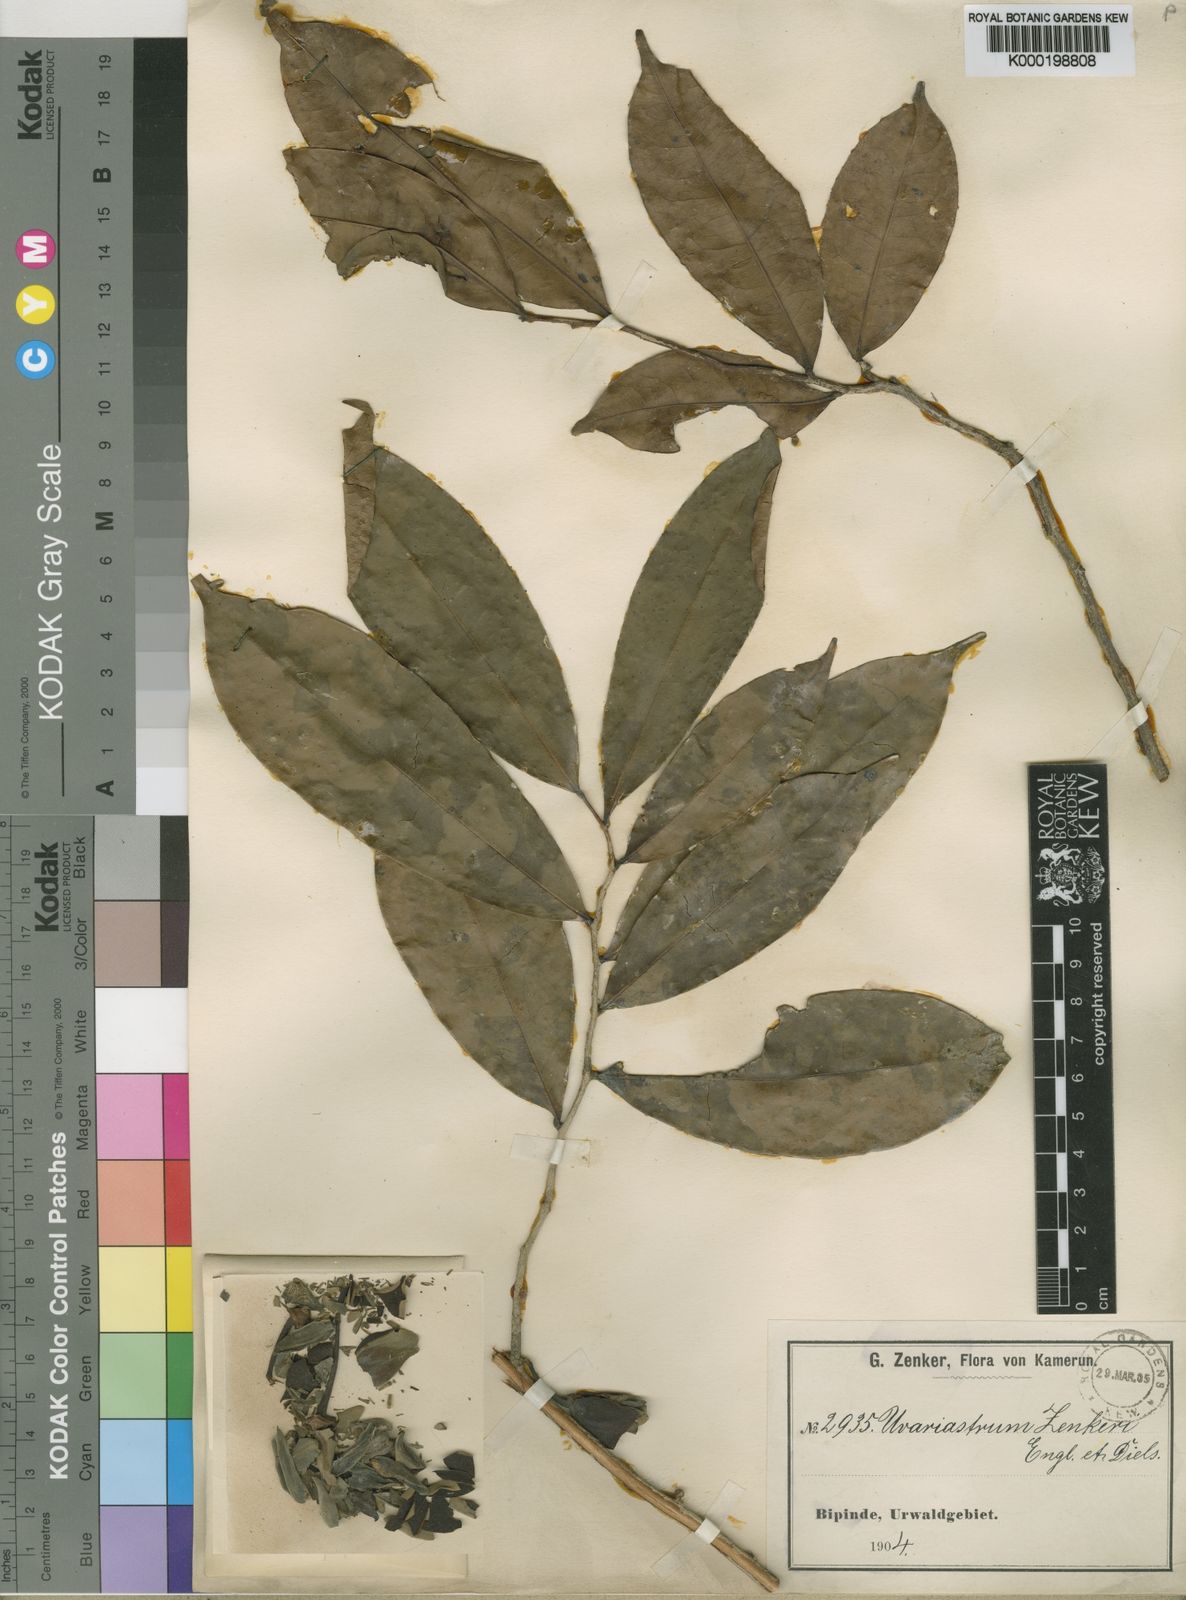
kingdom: Plantae
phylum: Tracheophyta
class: Magnoliopsida
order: Magnoliales
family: Annonaceae
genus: Uvariastrum
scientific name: Uvariastrum zenkeri
